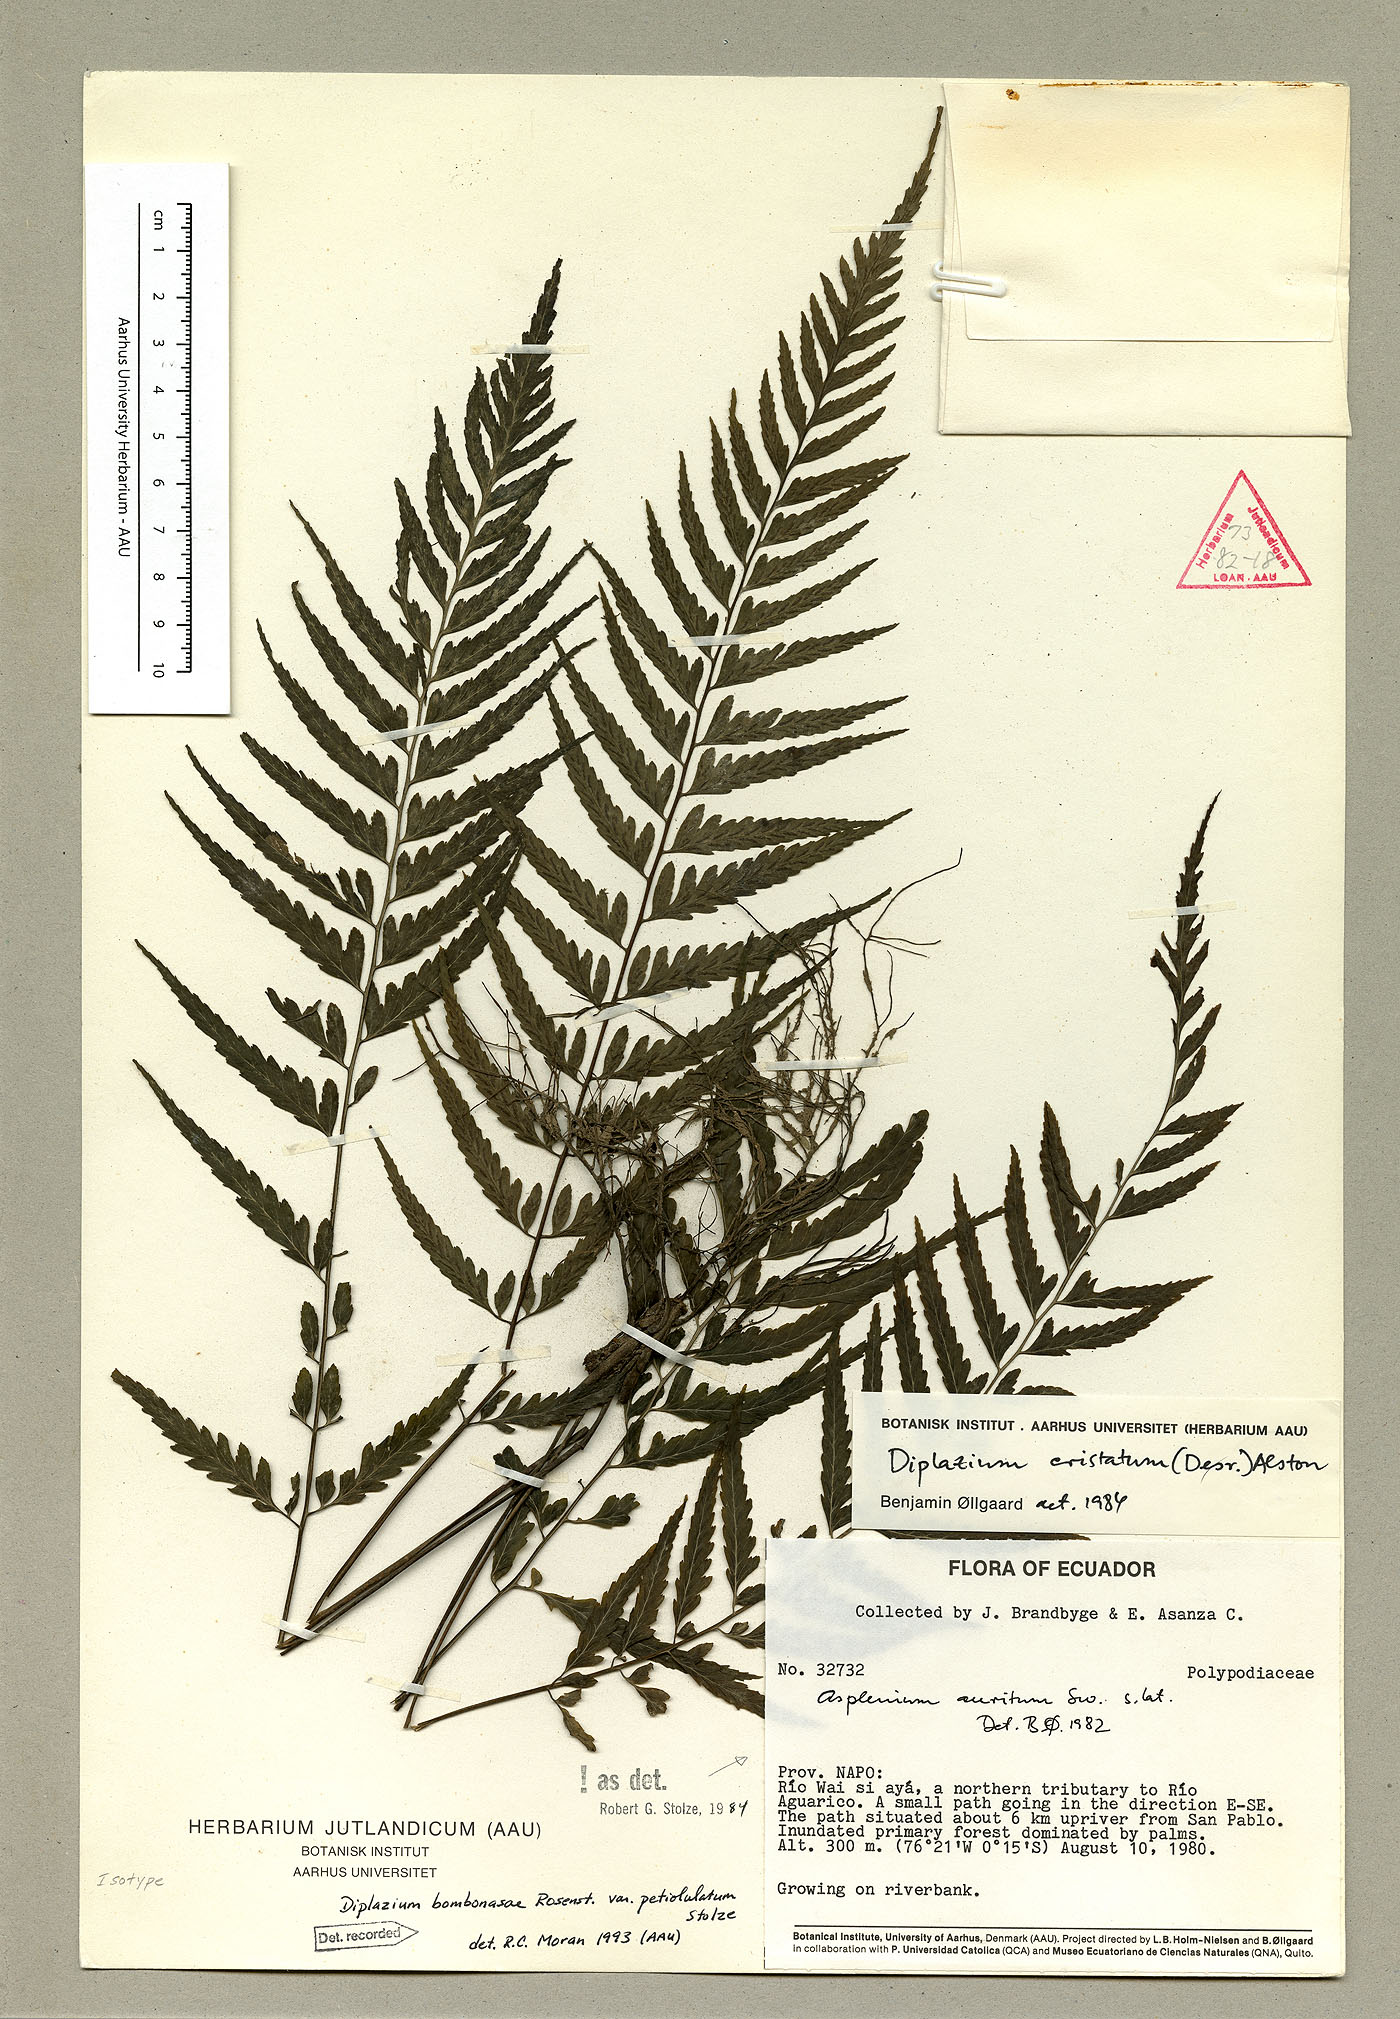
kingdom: Plantae
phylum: Tracheophyta
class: Liliopsida
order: Zingiberales
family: Heliconiaceae
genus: Heliconia
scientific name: Heliconia chartacea
